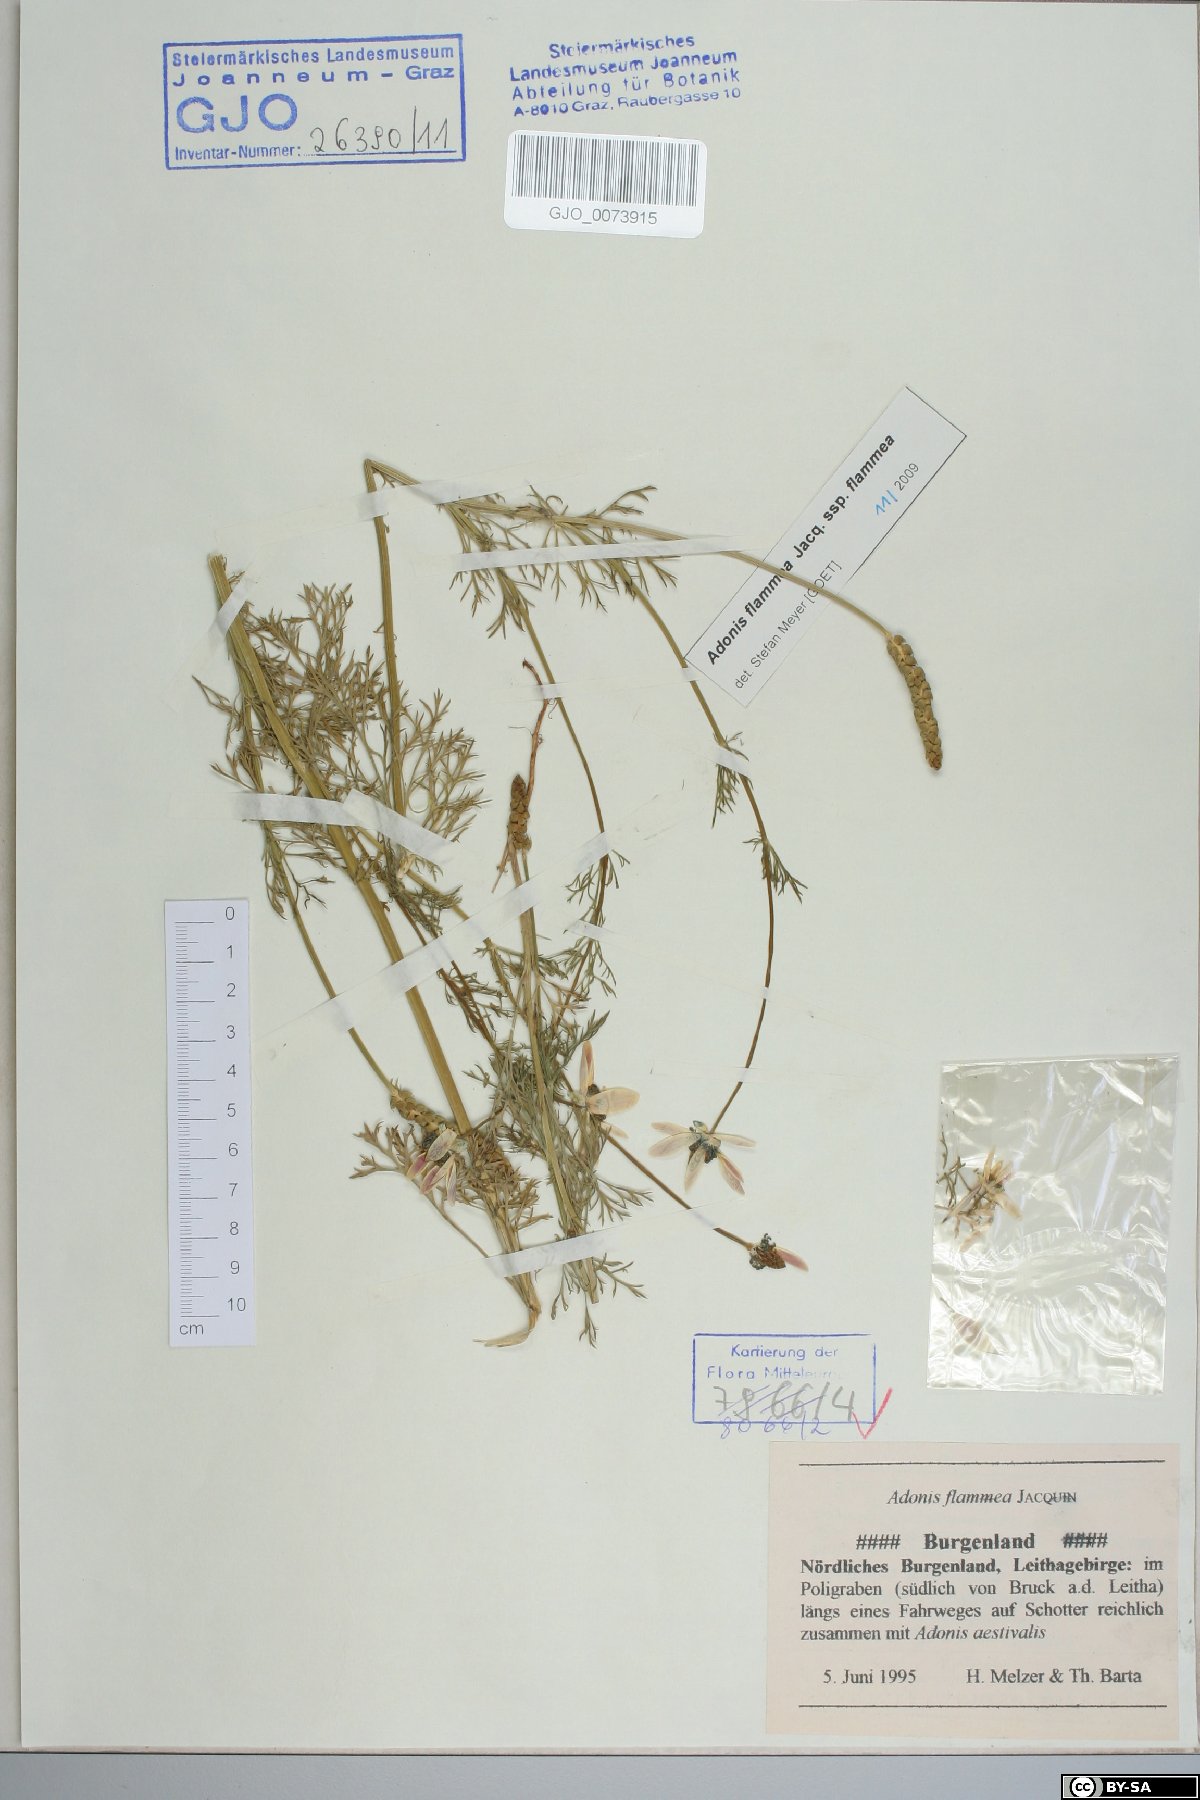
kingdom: Plantae
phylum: Tracheophyta
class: Magnoliopsida
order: Ranunculales
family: Ranunculaceae
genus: Adonis
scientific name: Adonis flammea
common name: Large pheasant's-eye
